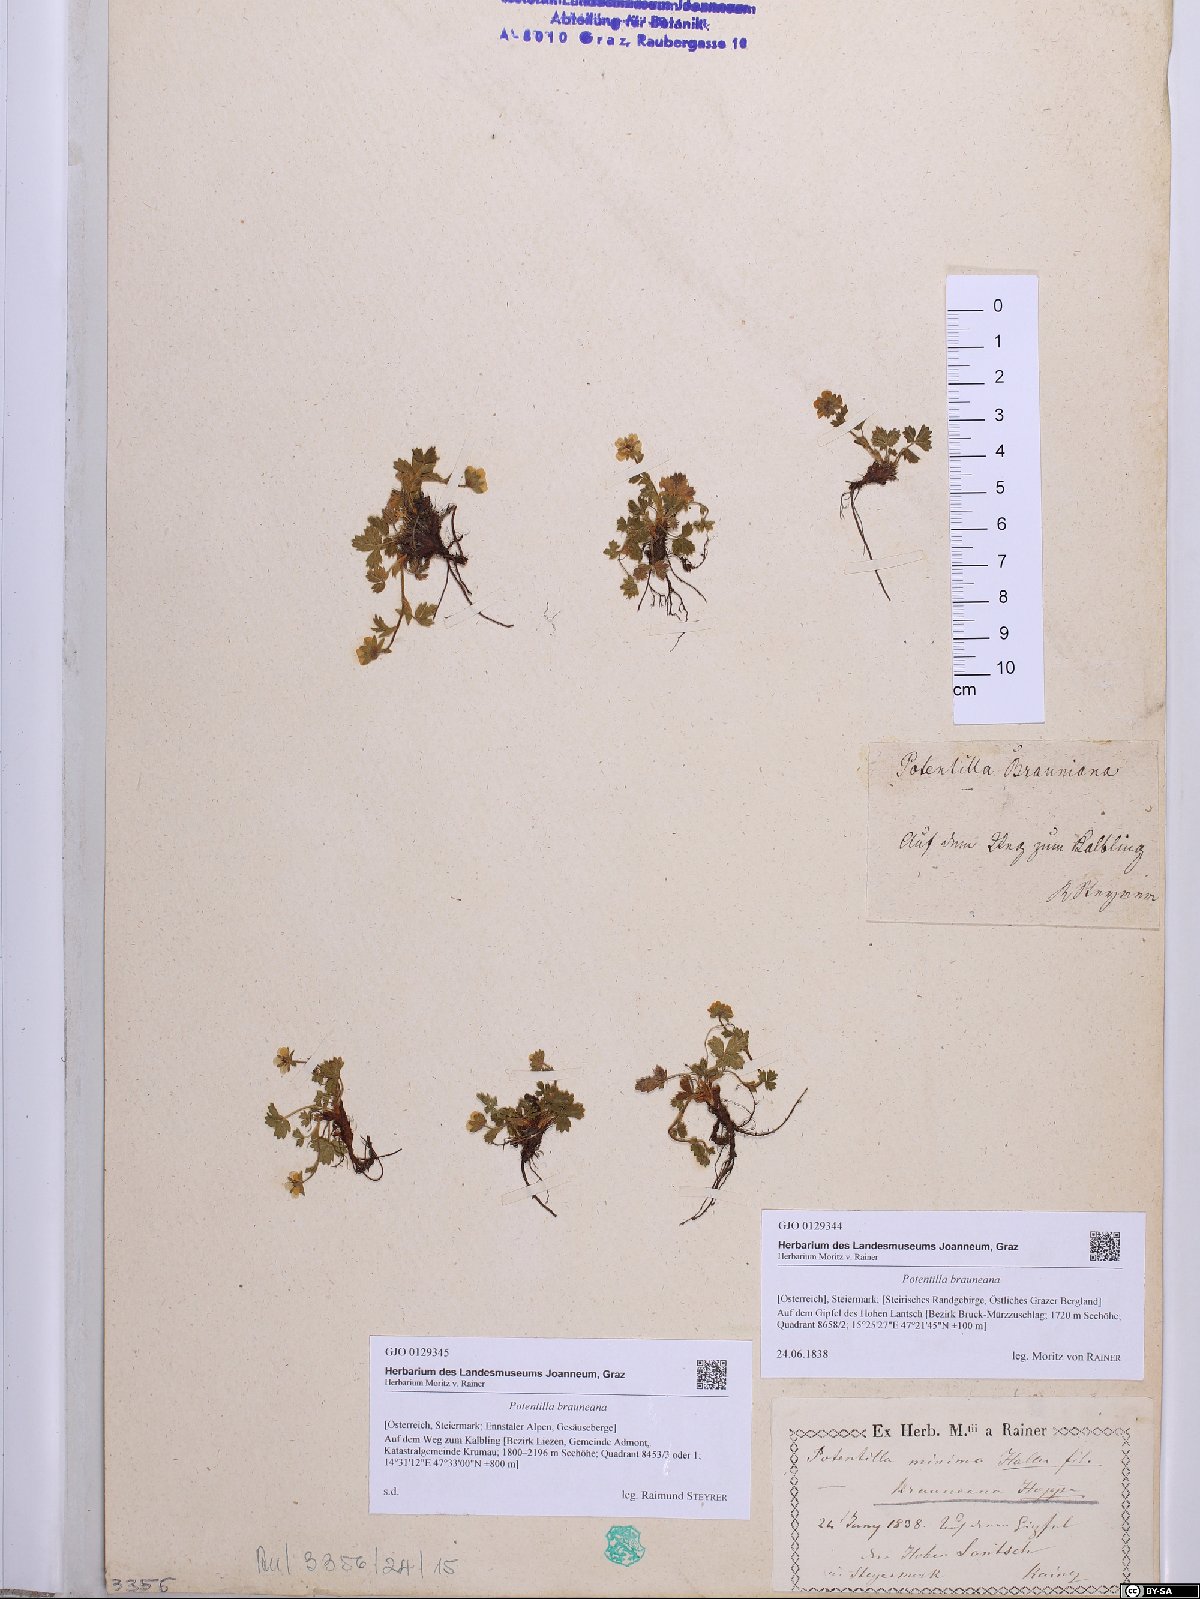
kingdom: Plantae
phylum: Tracheophyta
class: Magnoliopsida
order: Rosales
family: Rosaceae
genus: Potentilla
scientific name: Potentilla brauneana
